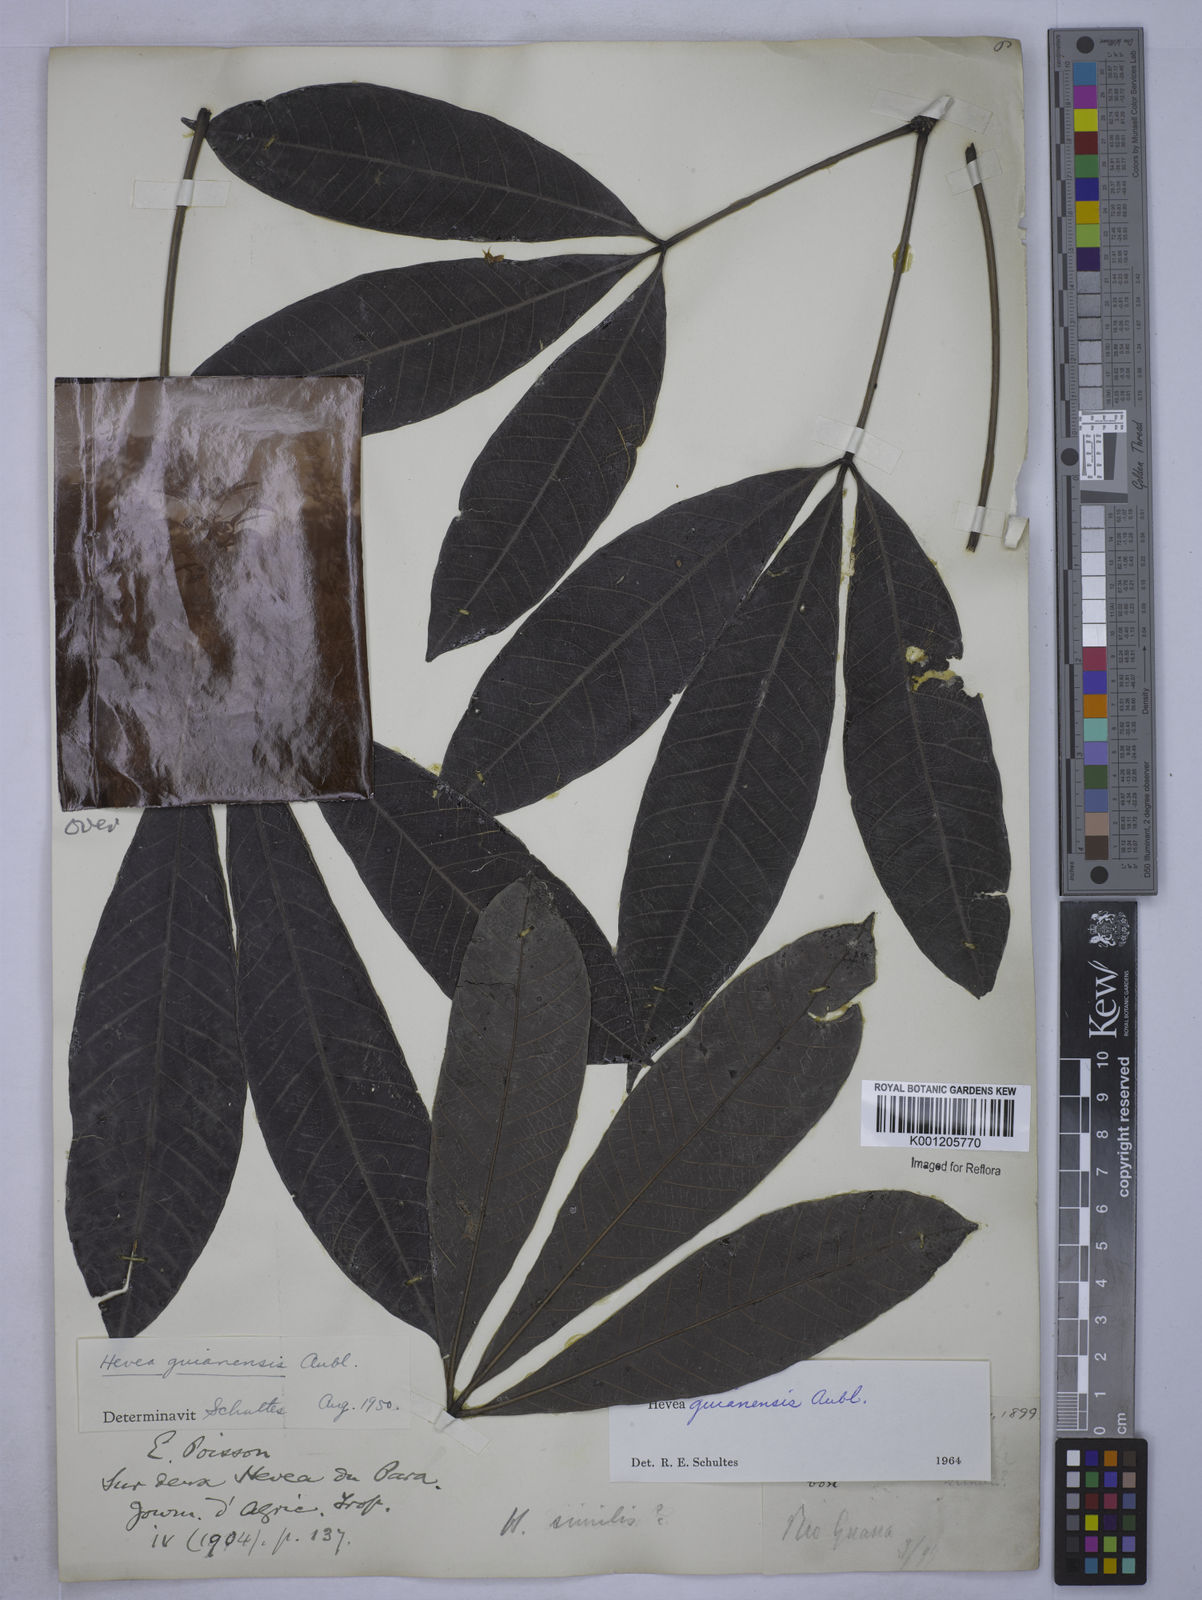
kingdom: Plantae
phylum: Tracheophyta
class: Magnoliopsida
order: Malpighiales
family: Euphorbiaceae
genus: Hevea
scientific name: Hevea guianensis
